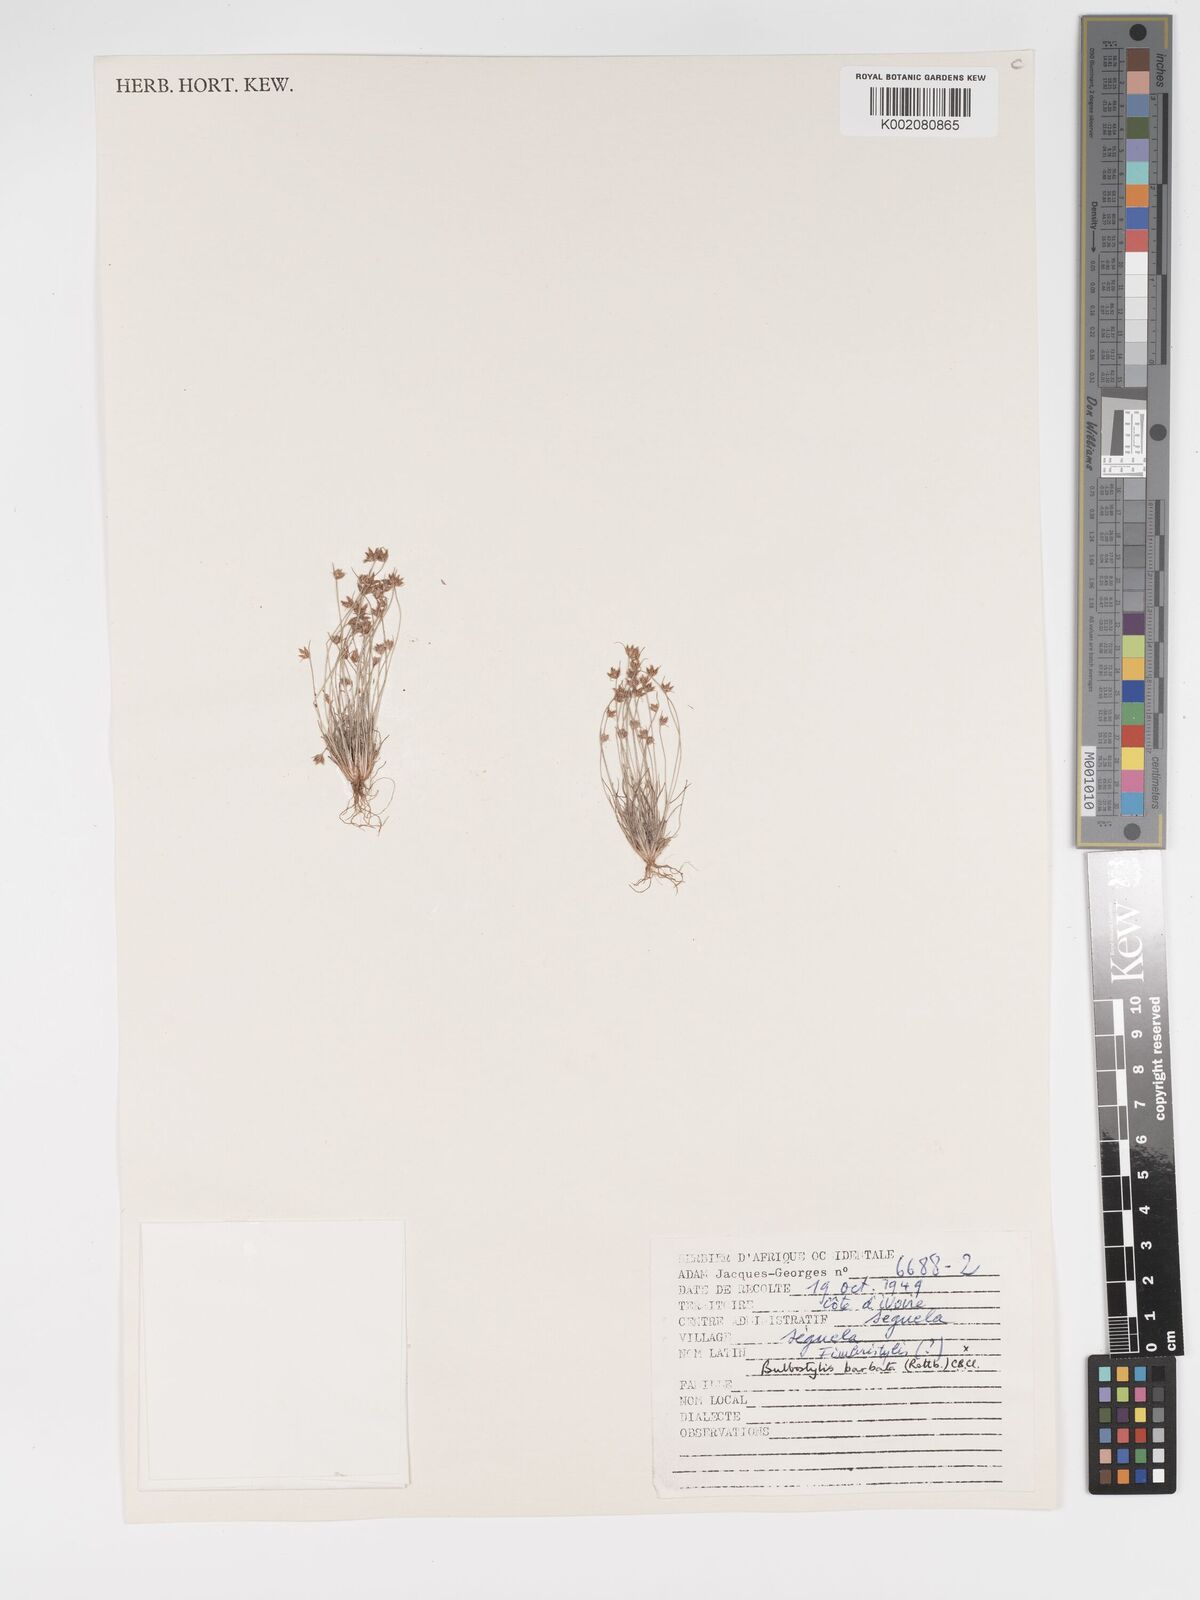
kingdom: Plantae
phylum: Tracheophyta
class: Liliopsida
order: Poales
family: Cyperaceae
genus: Bulbostylis
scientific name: Bulbostylis barbata
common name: Watergrass
